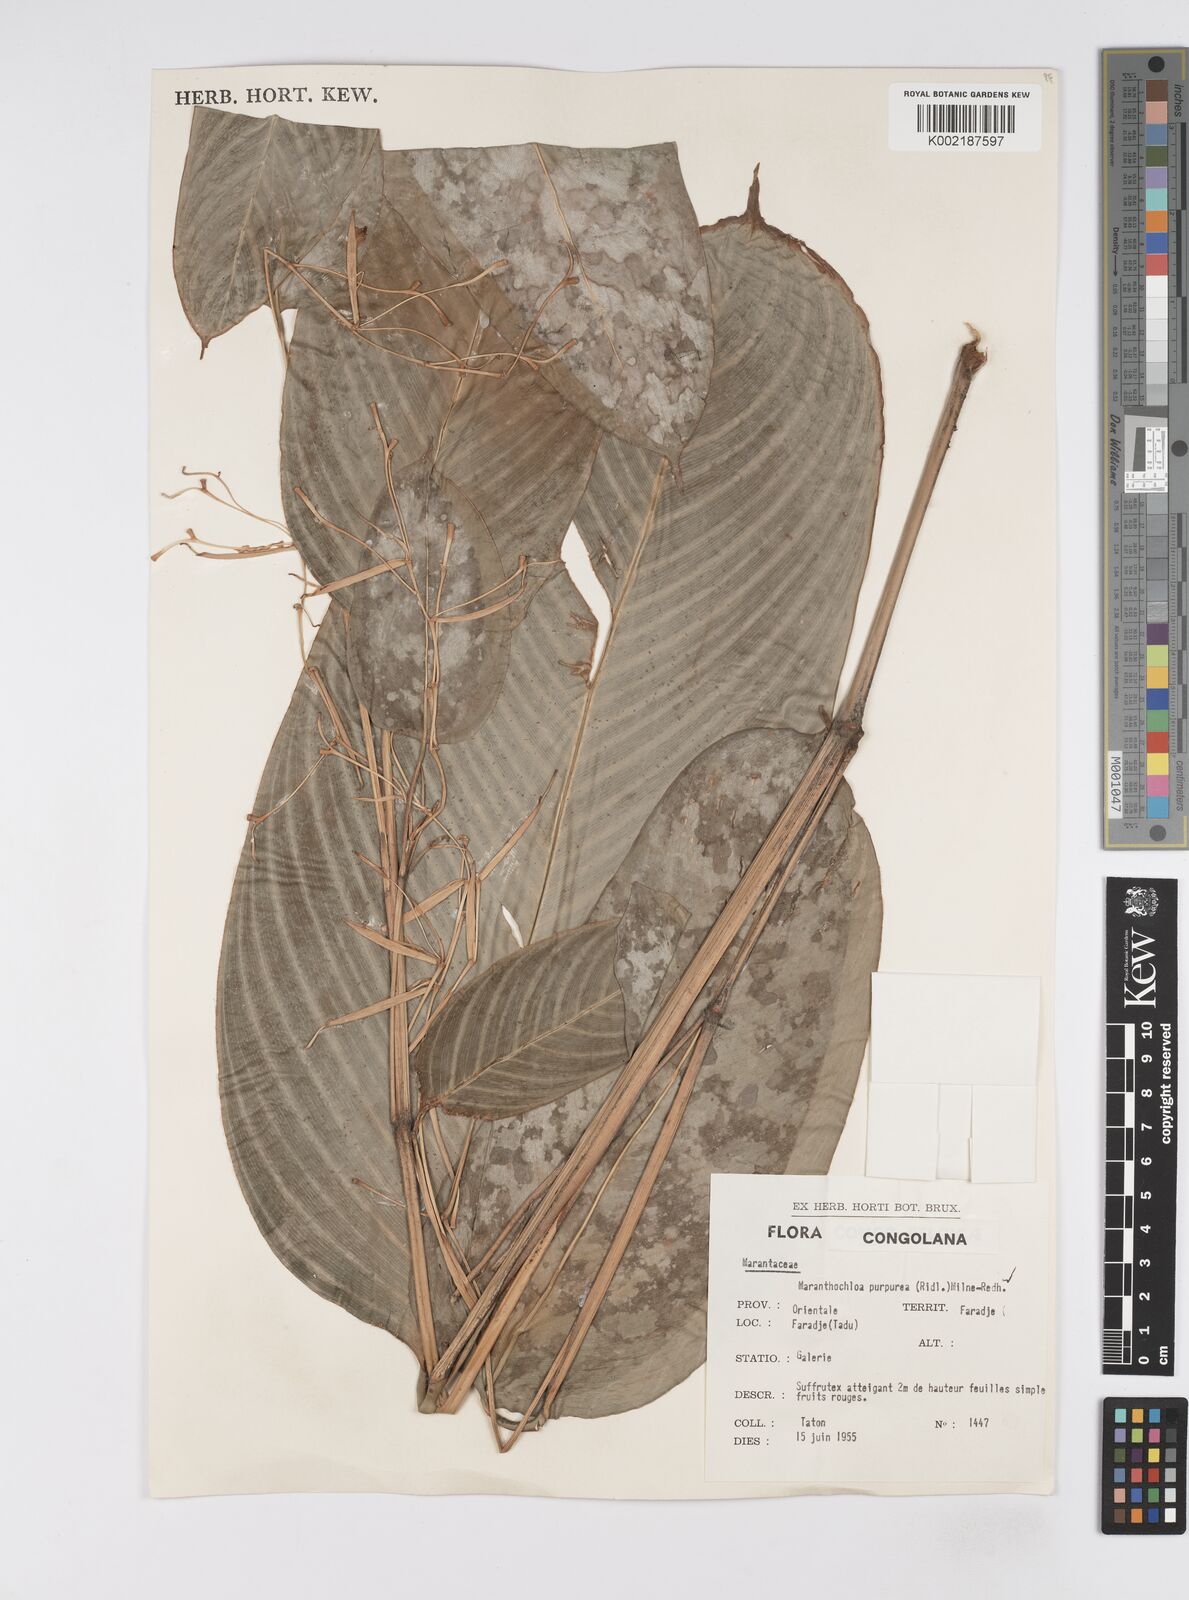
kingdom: Plantae
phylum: Tracheophyta
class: Liliopsida
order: Zingiberales
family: Marantaceae
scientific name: Marantaceae
